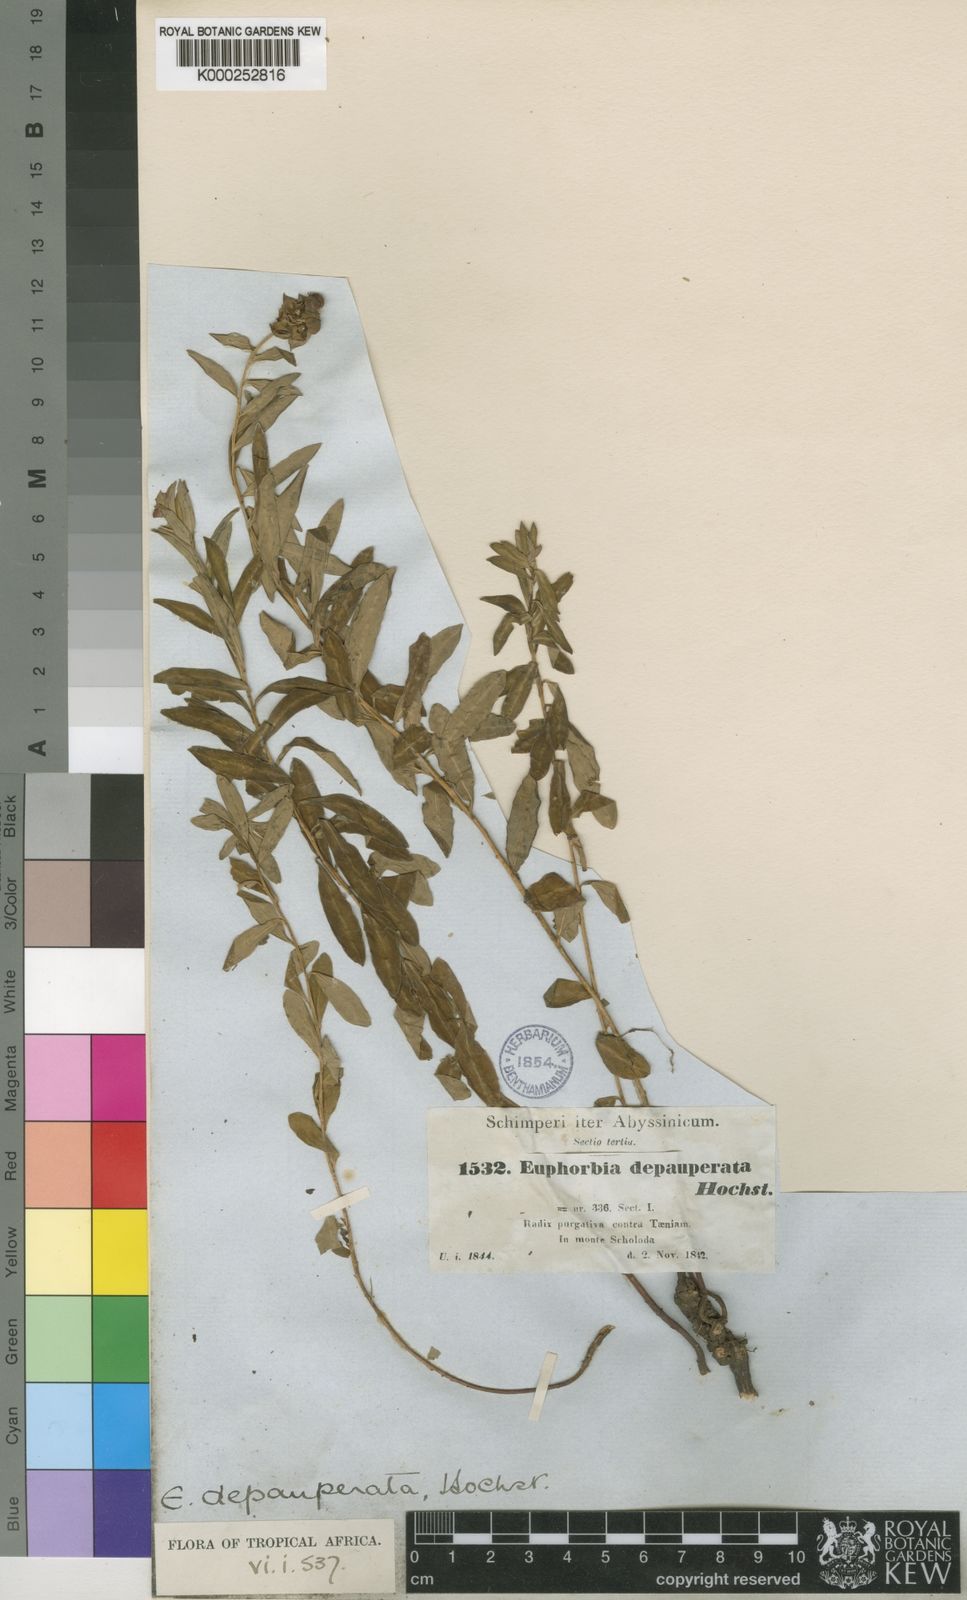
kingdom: Plantae
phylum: Tracheophyta
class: Magnoliopsida
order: Malpighiales
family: Euphorbiaceae
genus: Euphorbia
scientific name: Euphorbia
